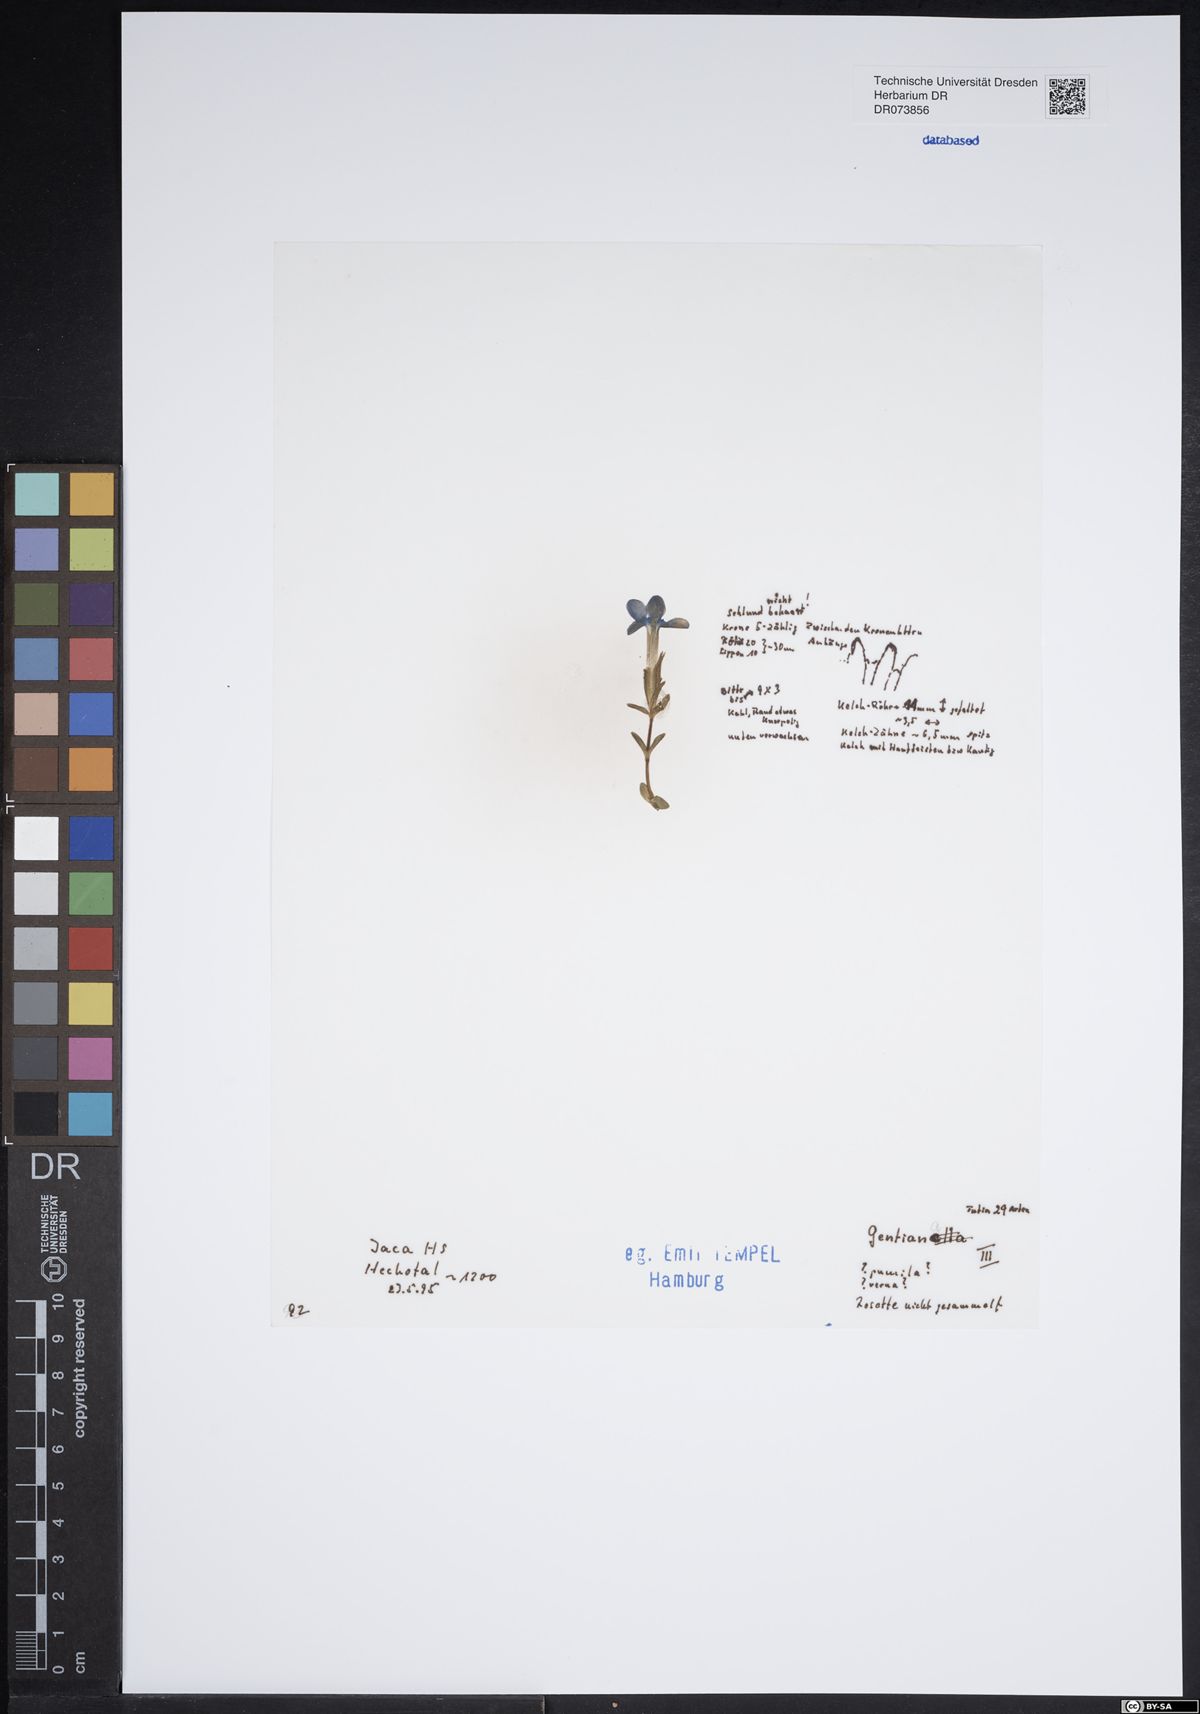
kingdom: Plantae
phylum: Tracheophyta
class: Magnoliopsida
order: Gentianales
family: Gentianaceae
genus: Gentiana
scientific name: Gentiana
